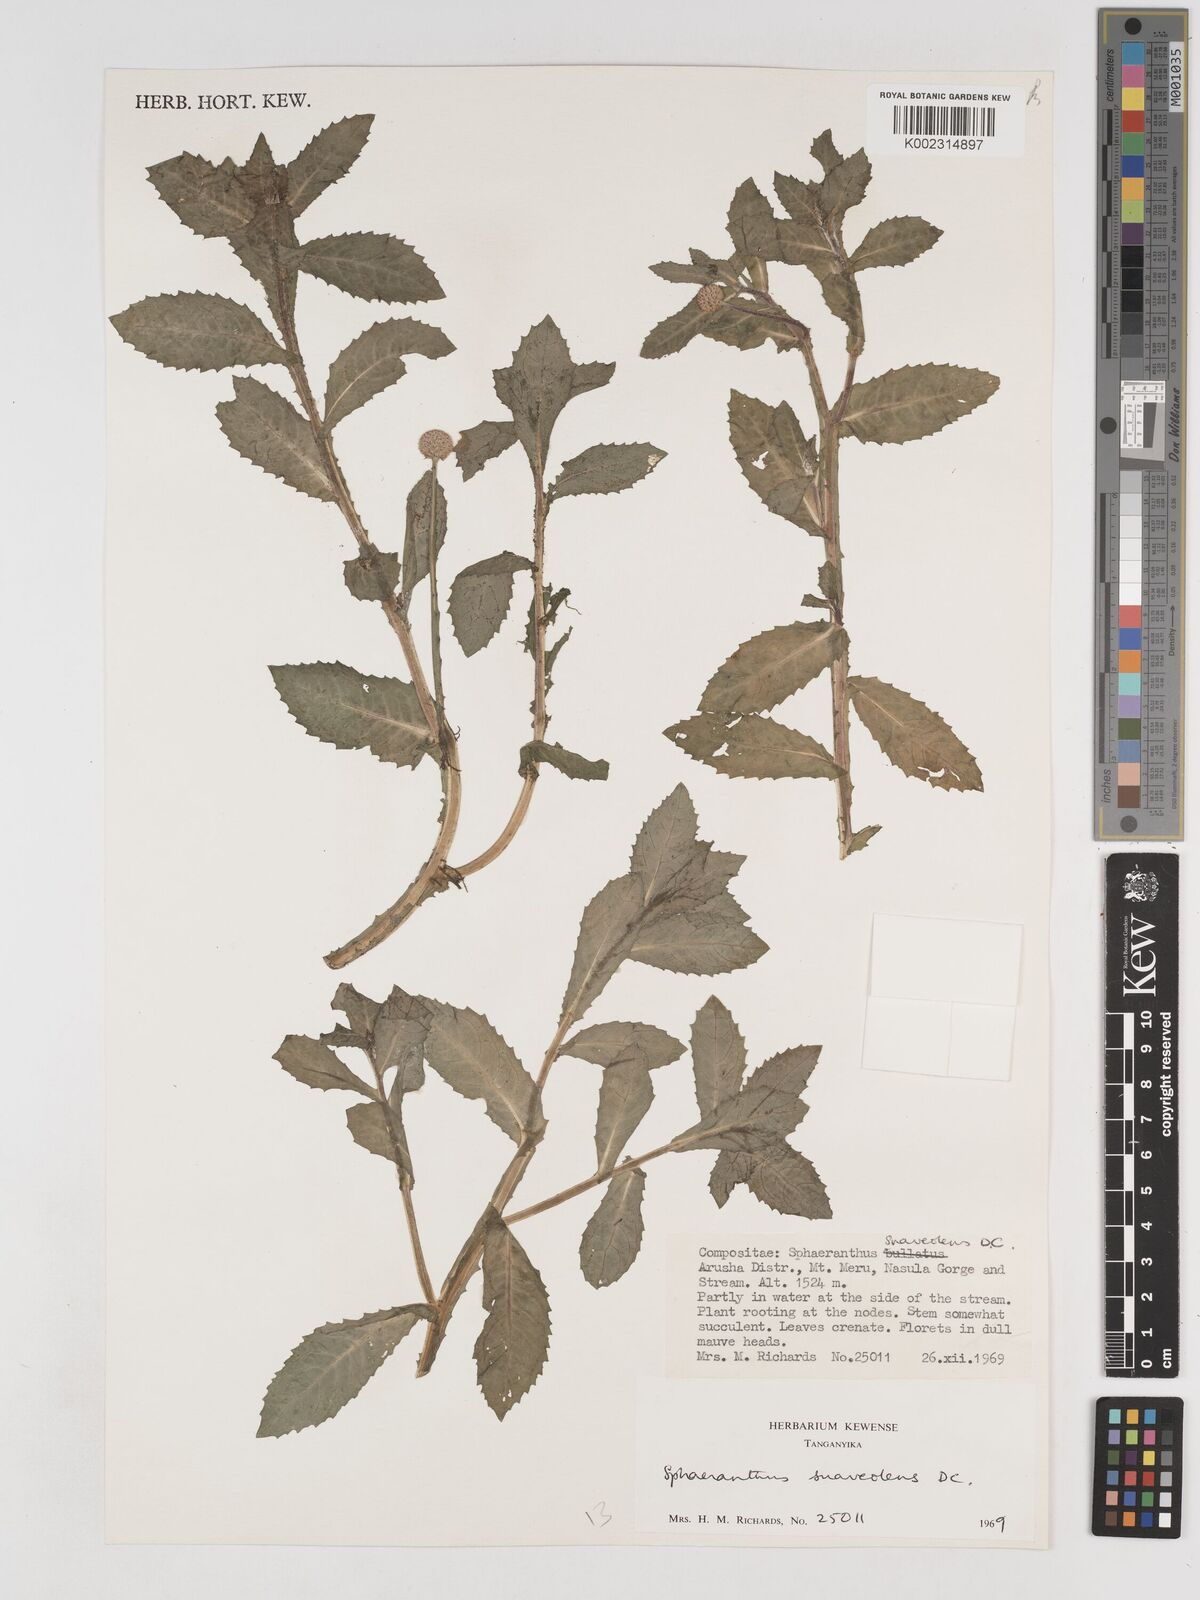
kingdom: Plantae
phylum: Tracheophyta
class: Magnoliopsida
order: Asterales
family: Asteraceae
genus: Sphaeranthus
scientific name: Sphaeranthus suaveolens
